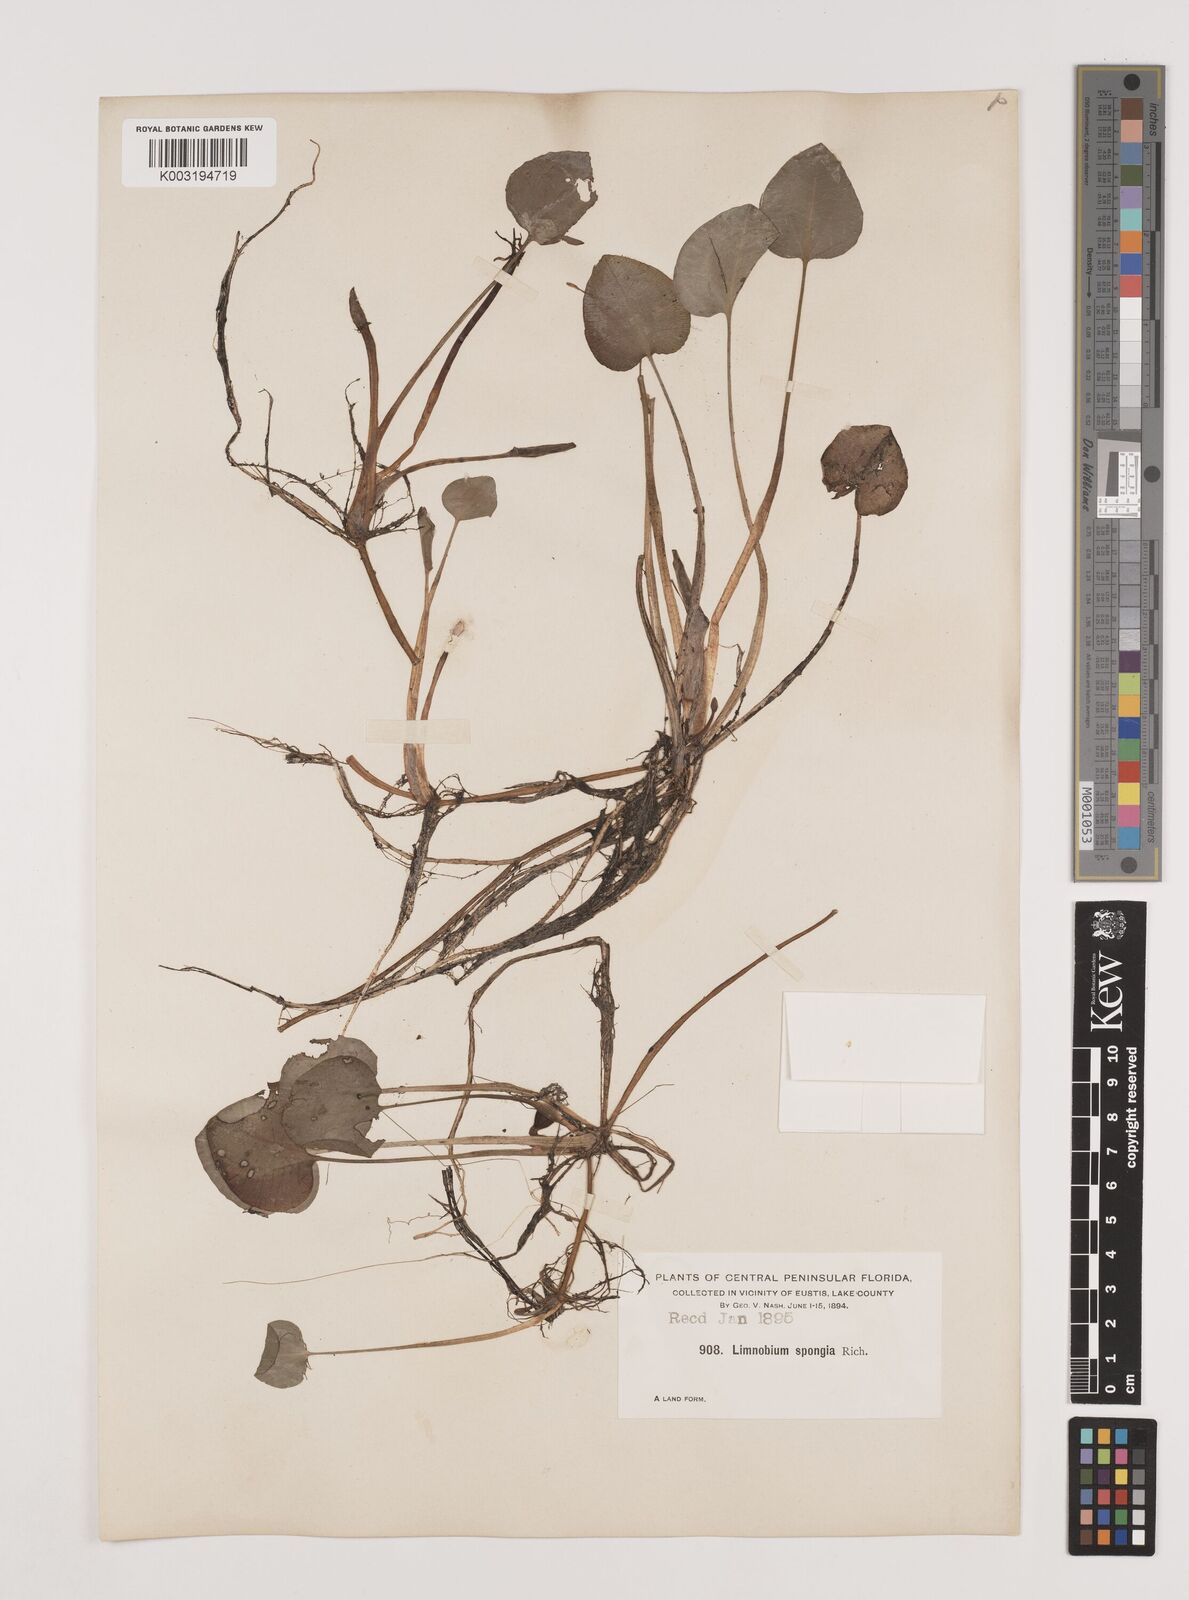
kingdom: Plantae
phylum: Tracheophyta
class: Liliopsida
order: Alismatales
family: Hydrocharitaceae
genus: Hydrocharis
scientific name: Hydrocharis spongia
